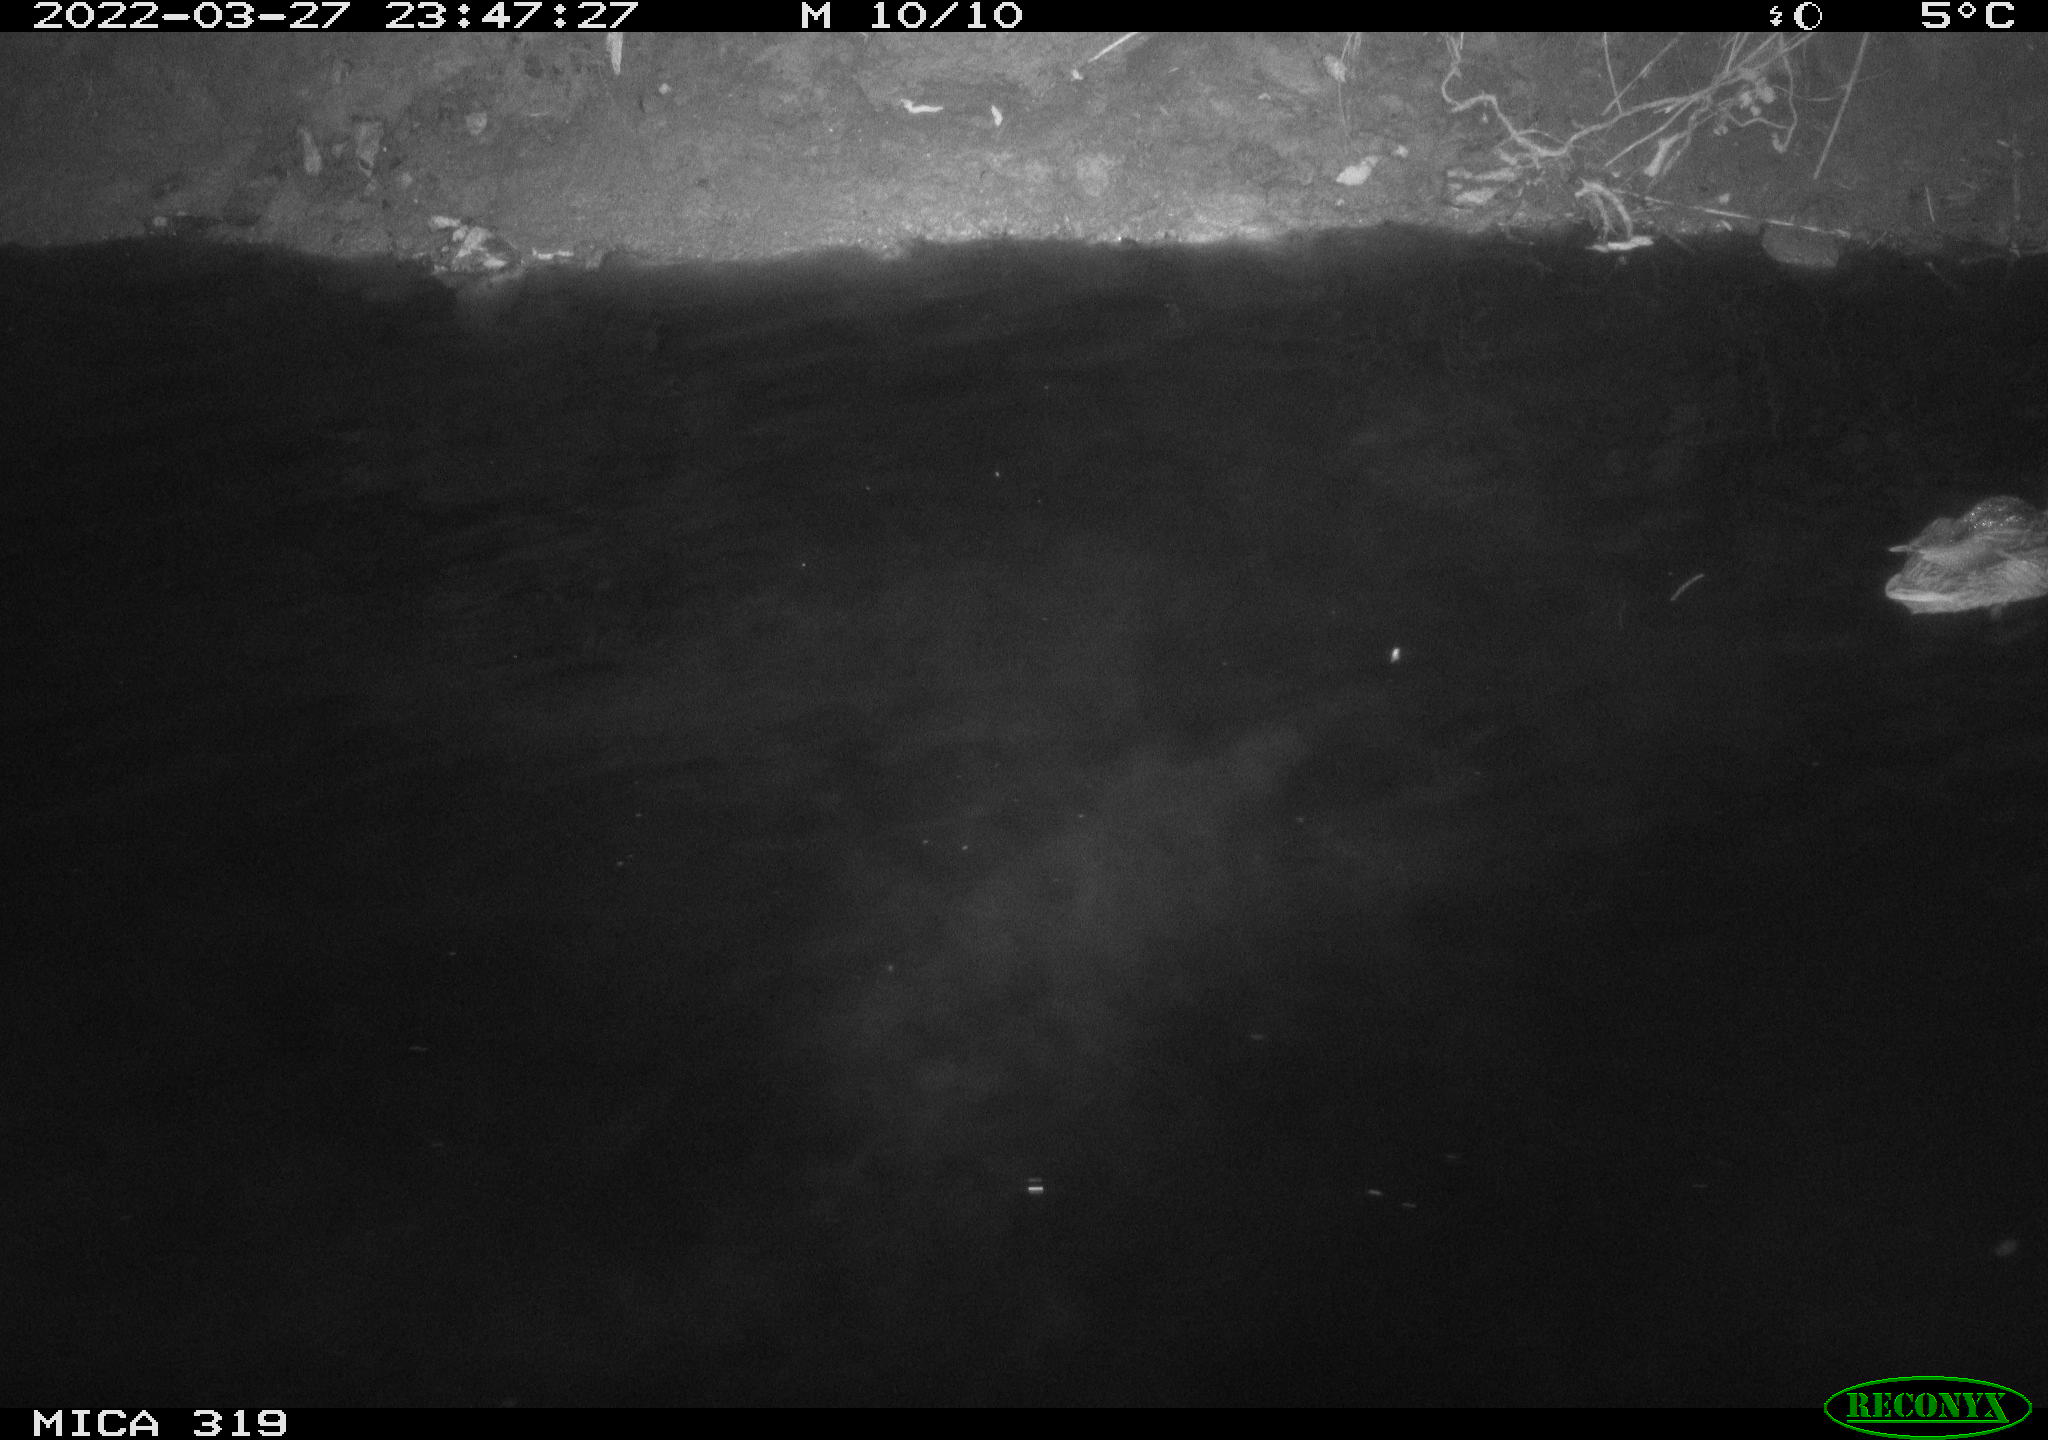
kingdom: Animalia
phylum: Chordata
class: Aves
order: Anseriformes
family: Anatidae
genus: Anas
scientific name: Anas platyrhynchos
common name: Mallard
